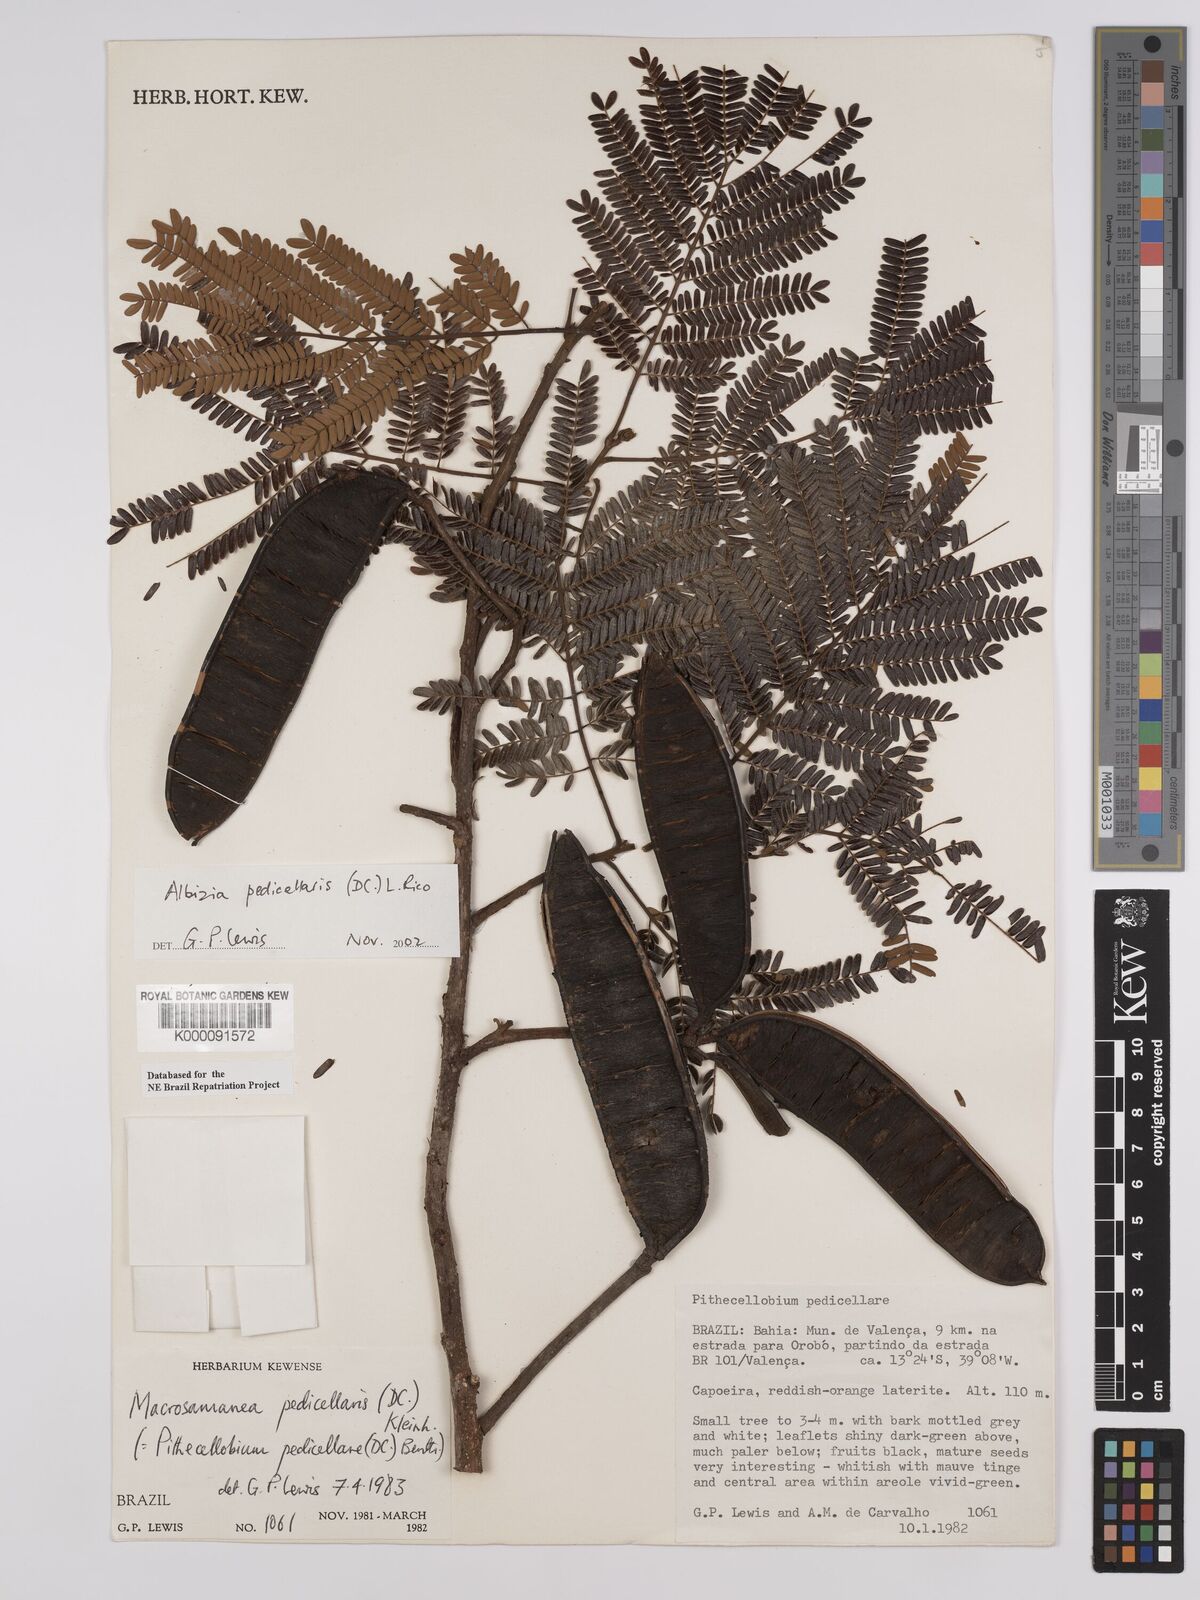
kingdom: Plantae
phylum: Tracheophyta
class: Magnoliopsida
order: Fabales
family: Fabaceae
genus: Balizia
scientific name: Balizia pedicellaris
